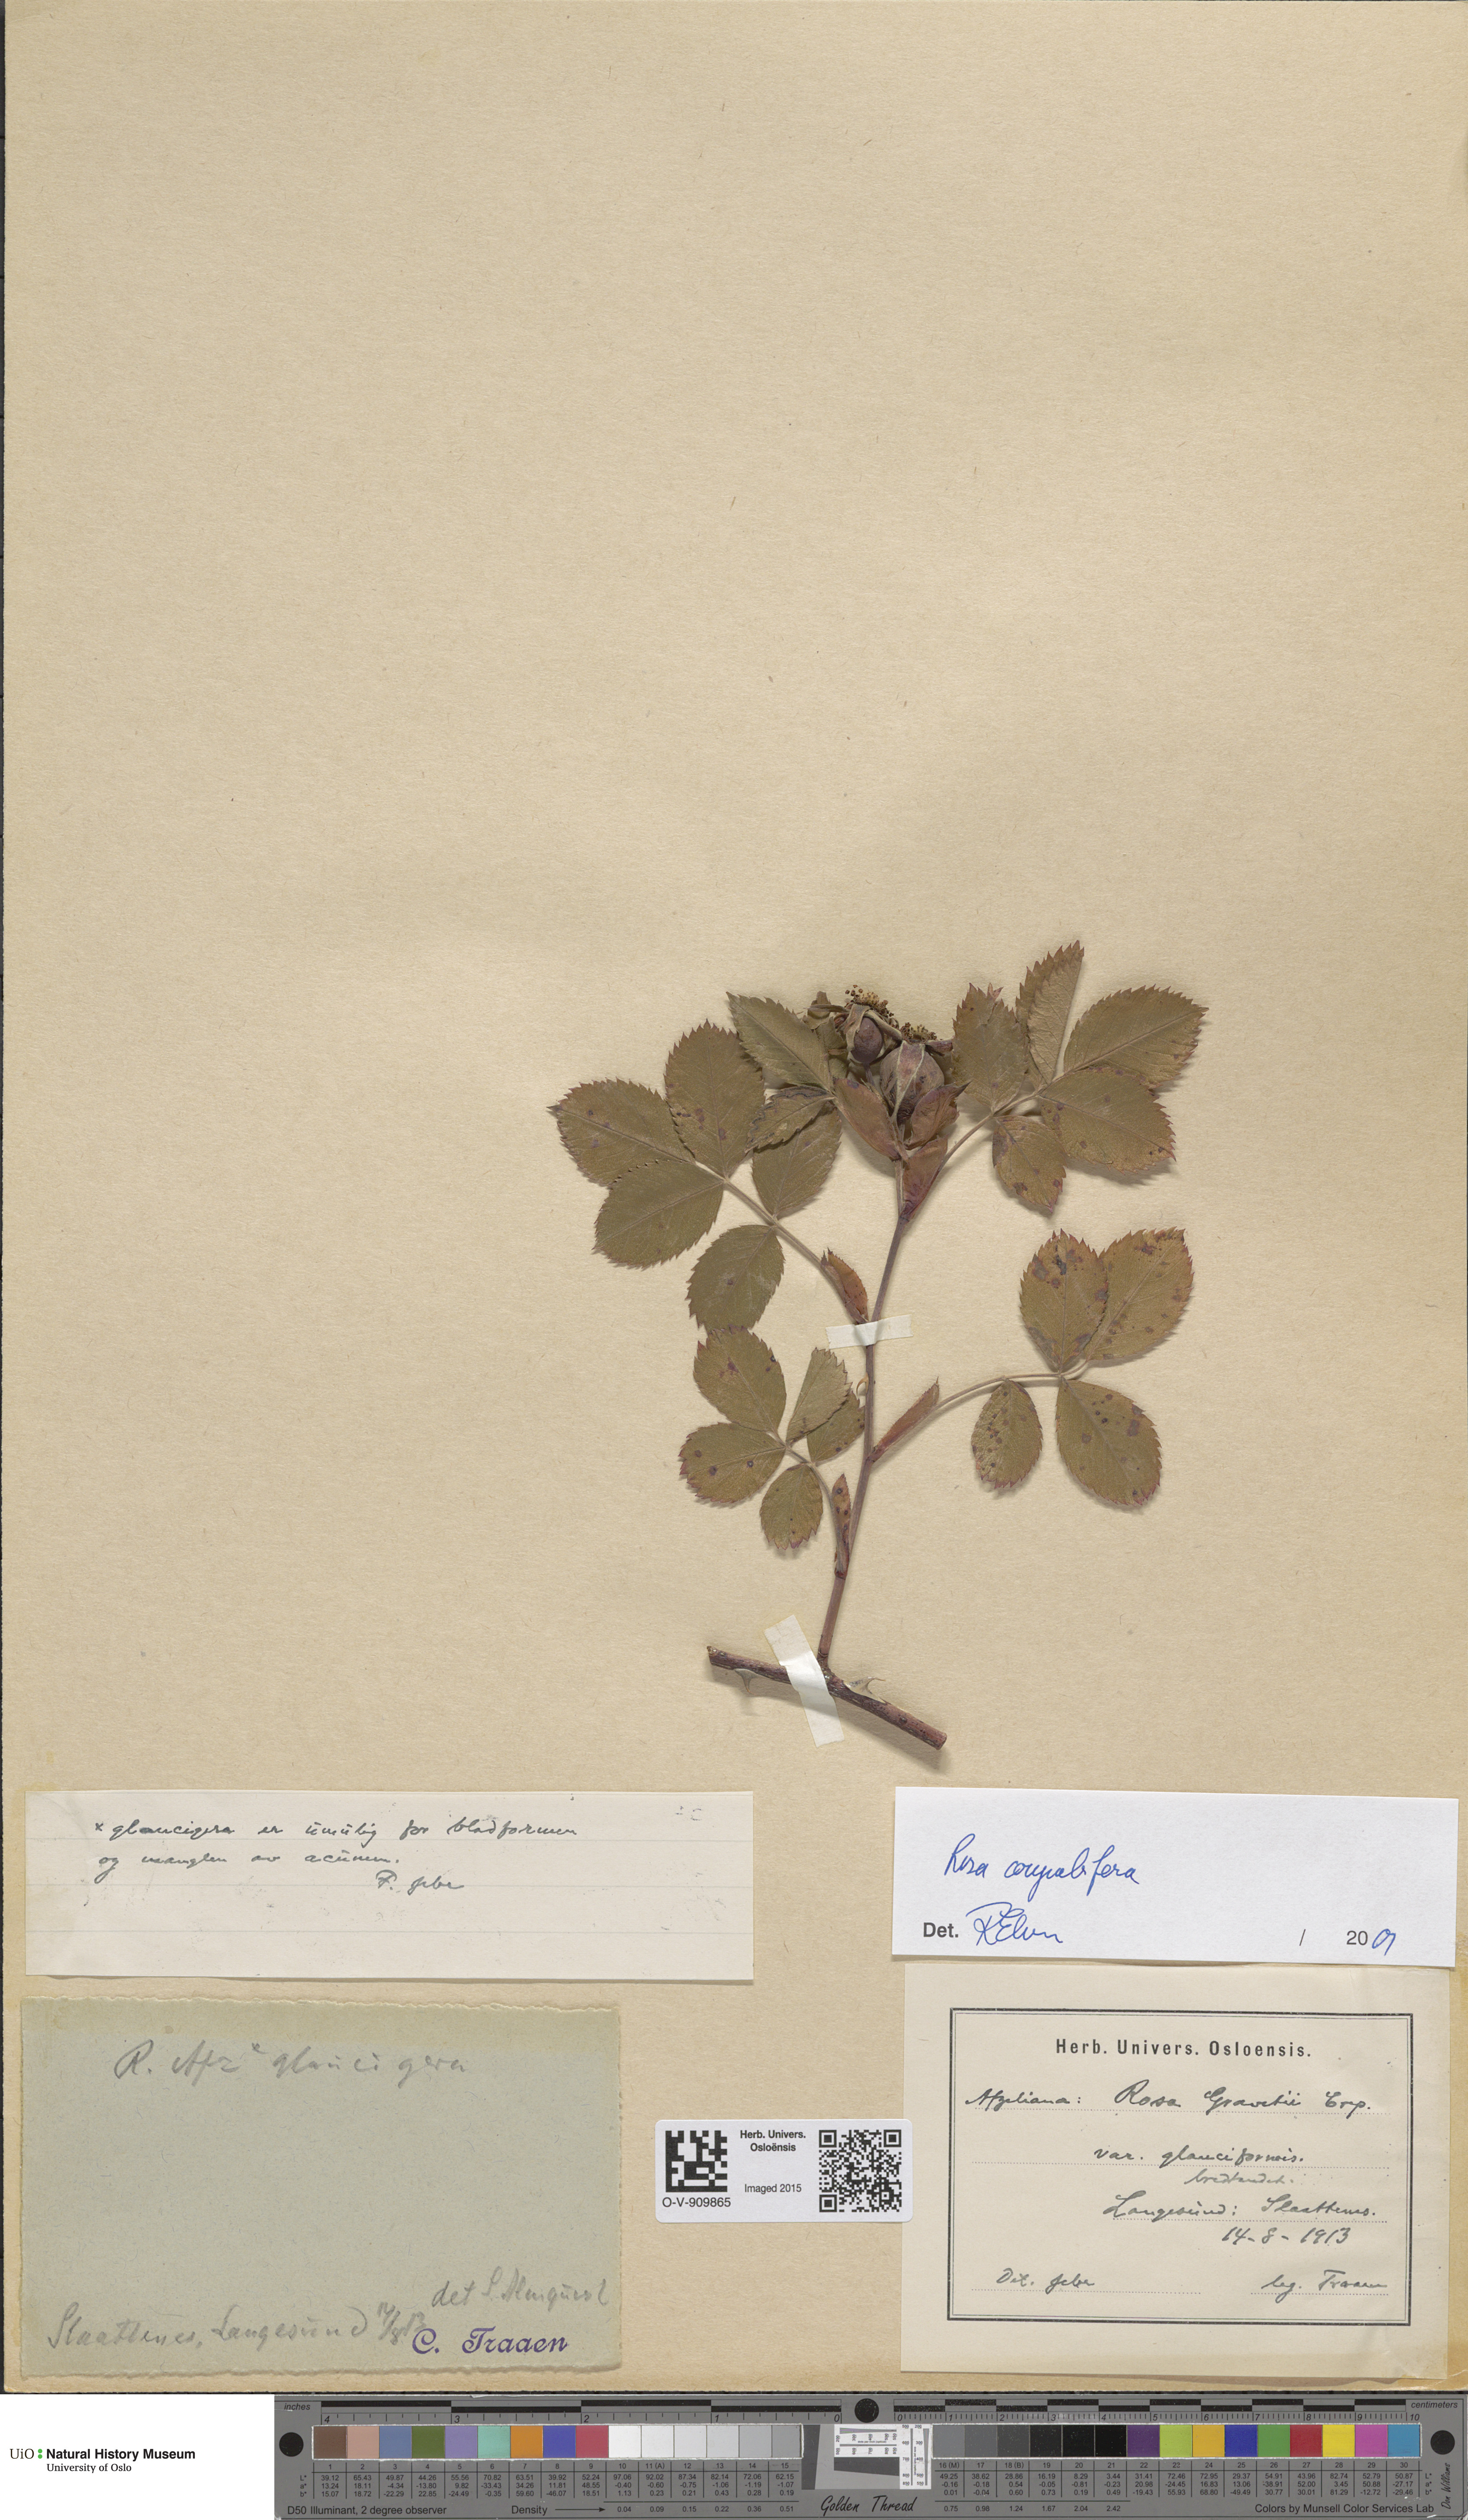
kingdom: Plantae
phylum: Tracheophyta
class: Magnoliopsida
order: Rosales
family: Rosaceae
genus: Rosa
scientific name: Rosa corymbifera
